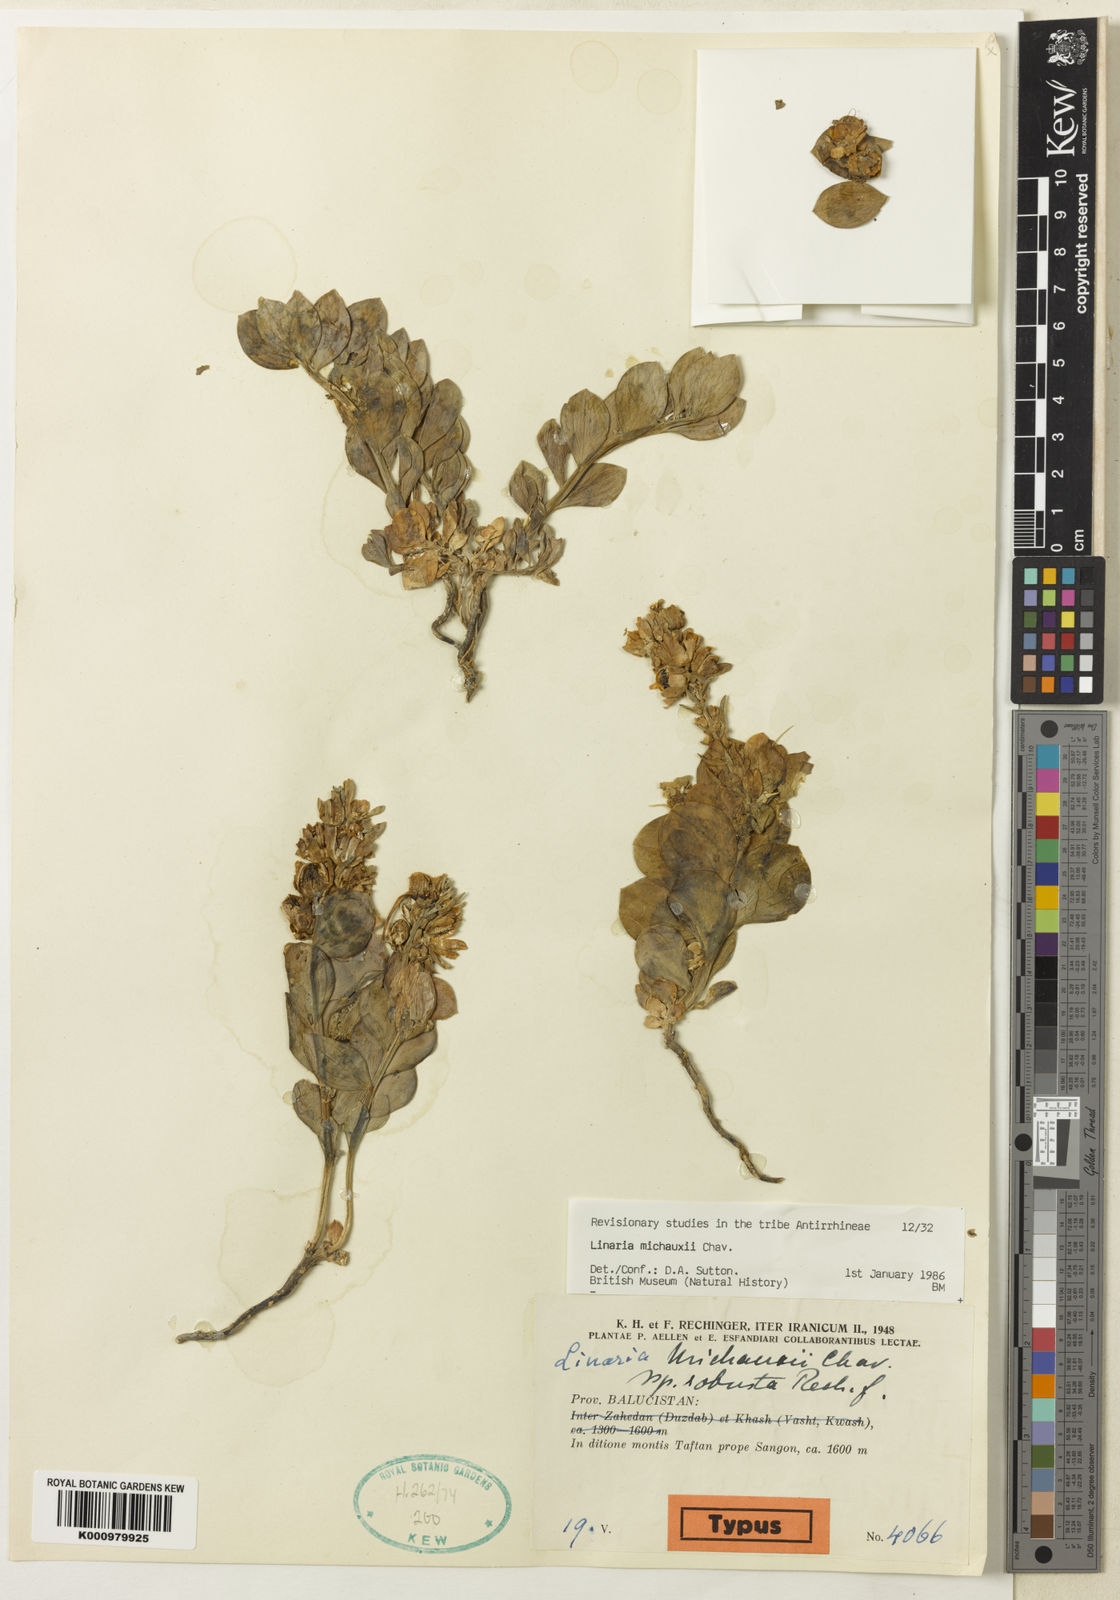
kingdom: Plantae
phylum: Tracheophyta
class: Magnoliopsida
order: Lamiales
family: Plantaginaceae
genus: Linaria
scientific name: Linaria michauxii
